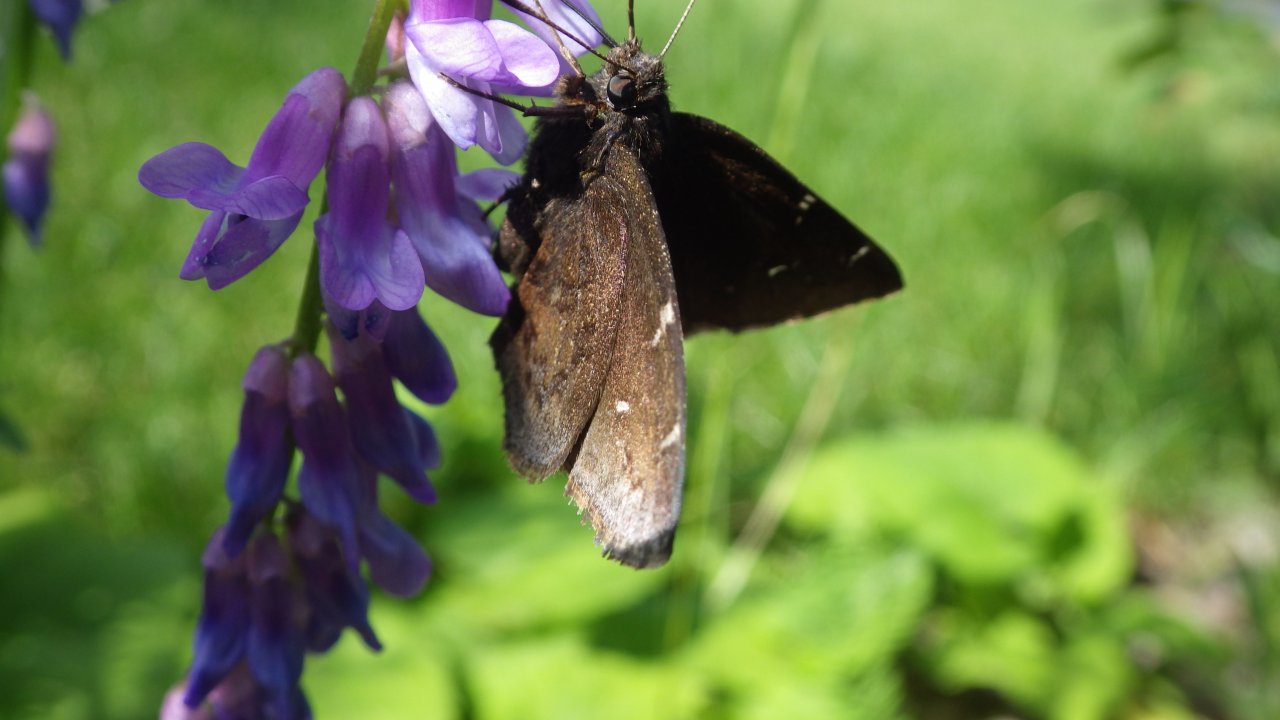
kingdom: Animalia
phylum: Arthropoda
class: Insecta
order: Lepidoptera
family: Hesperiidae
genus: Autochton
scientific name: Autochton
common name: Northern Cloudywing
